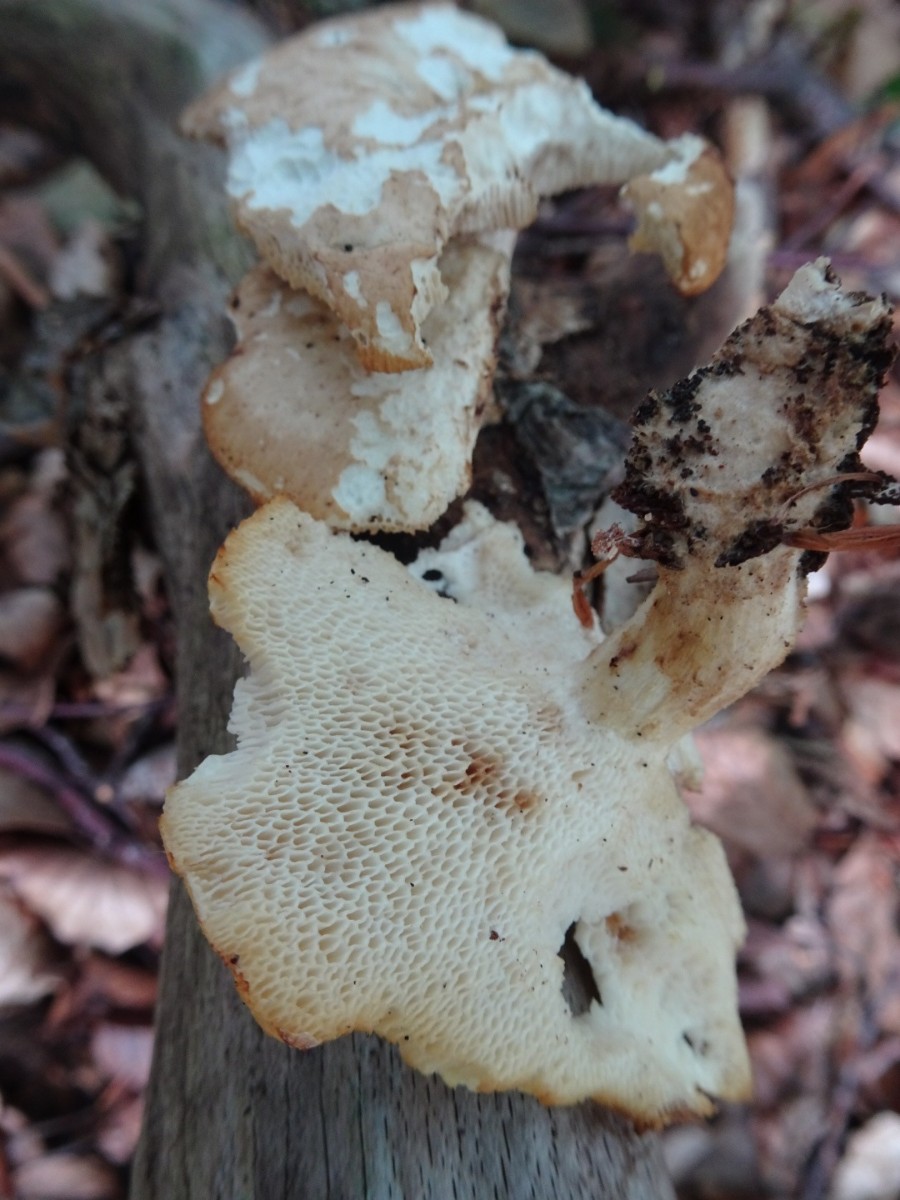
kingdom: Fungi
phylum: Basidiomycota
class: Agaricomycetes
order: Polyporales
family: Polyporaceae
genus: Polyporus
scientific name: Polyporus tuberaster
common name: knoldet stilkporesvamp
